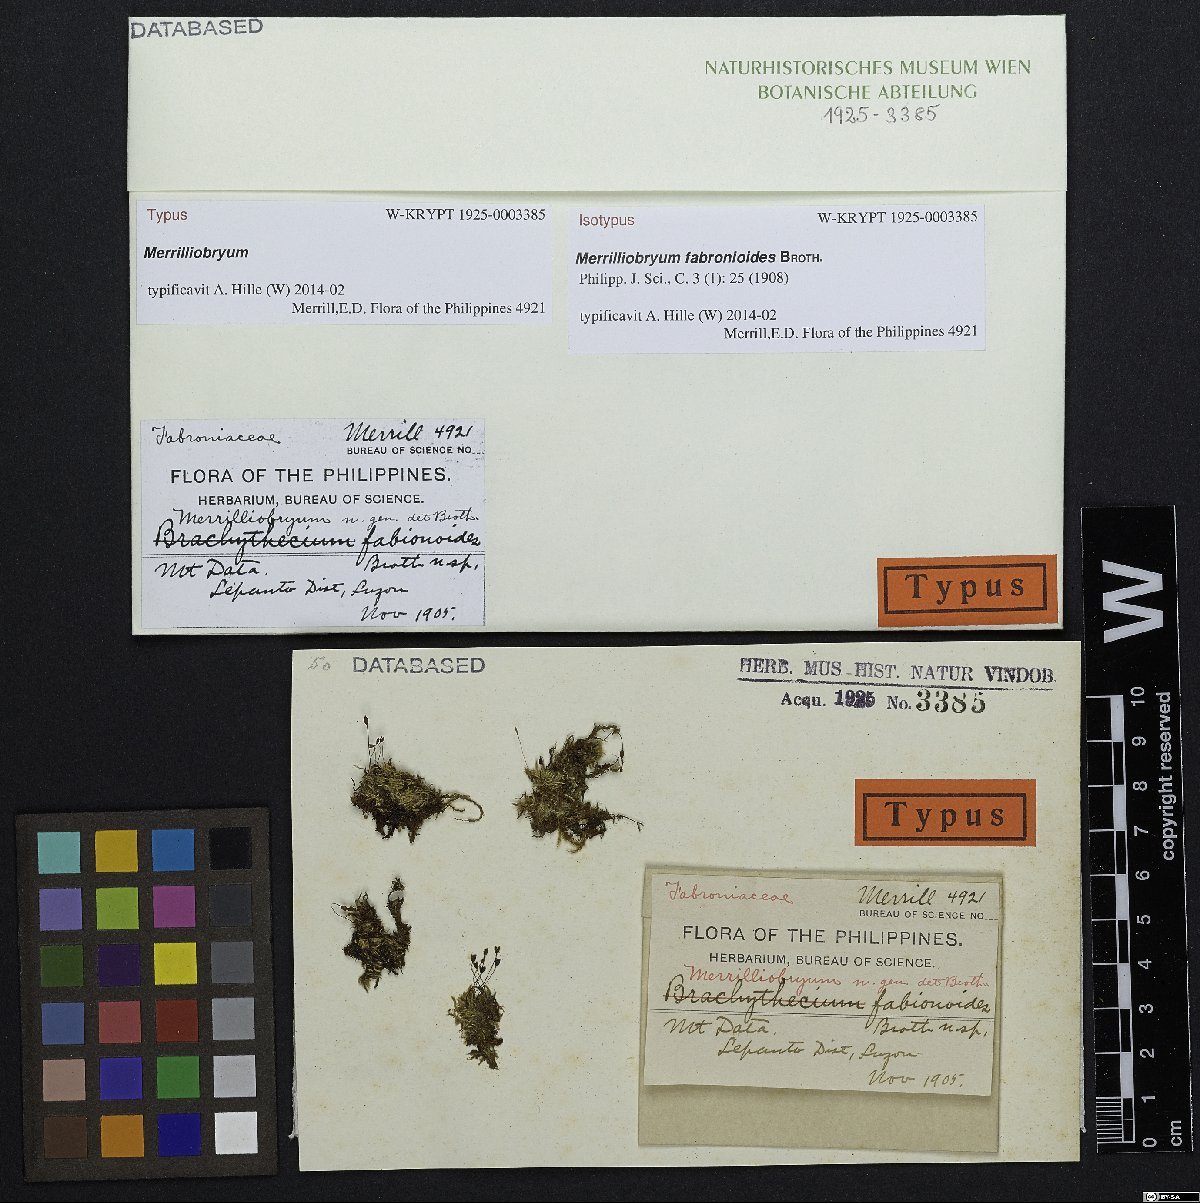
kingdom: Plantae
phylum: Bryophyta
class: Bryopsida
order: Hypnales
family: Myriniaceae
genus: Merrilliobryum
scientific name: Merrilliobryum fabronioides
